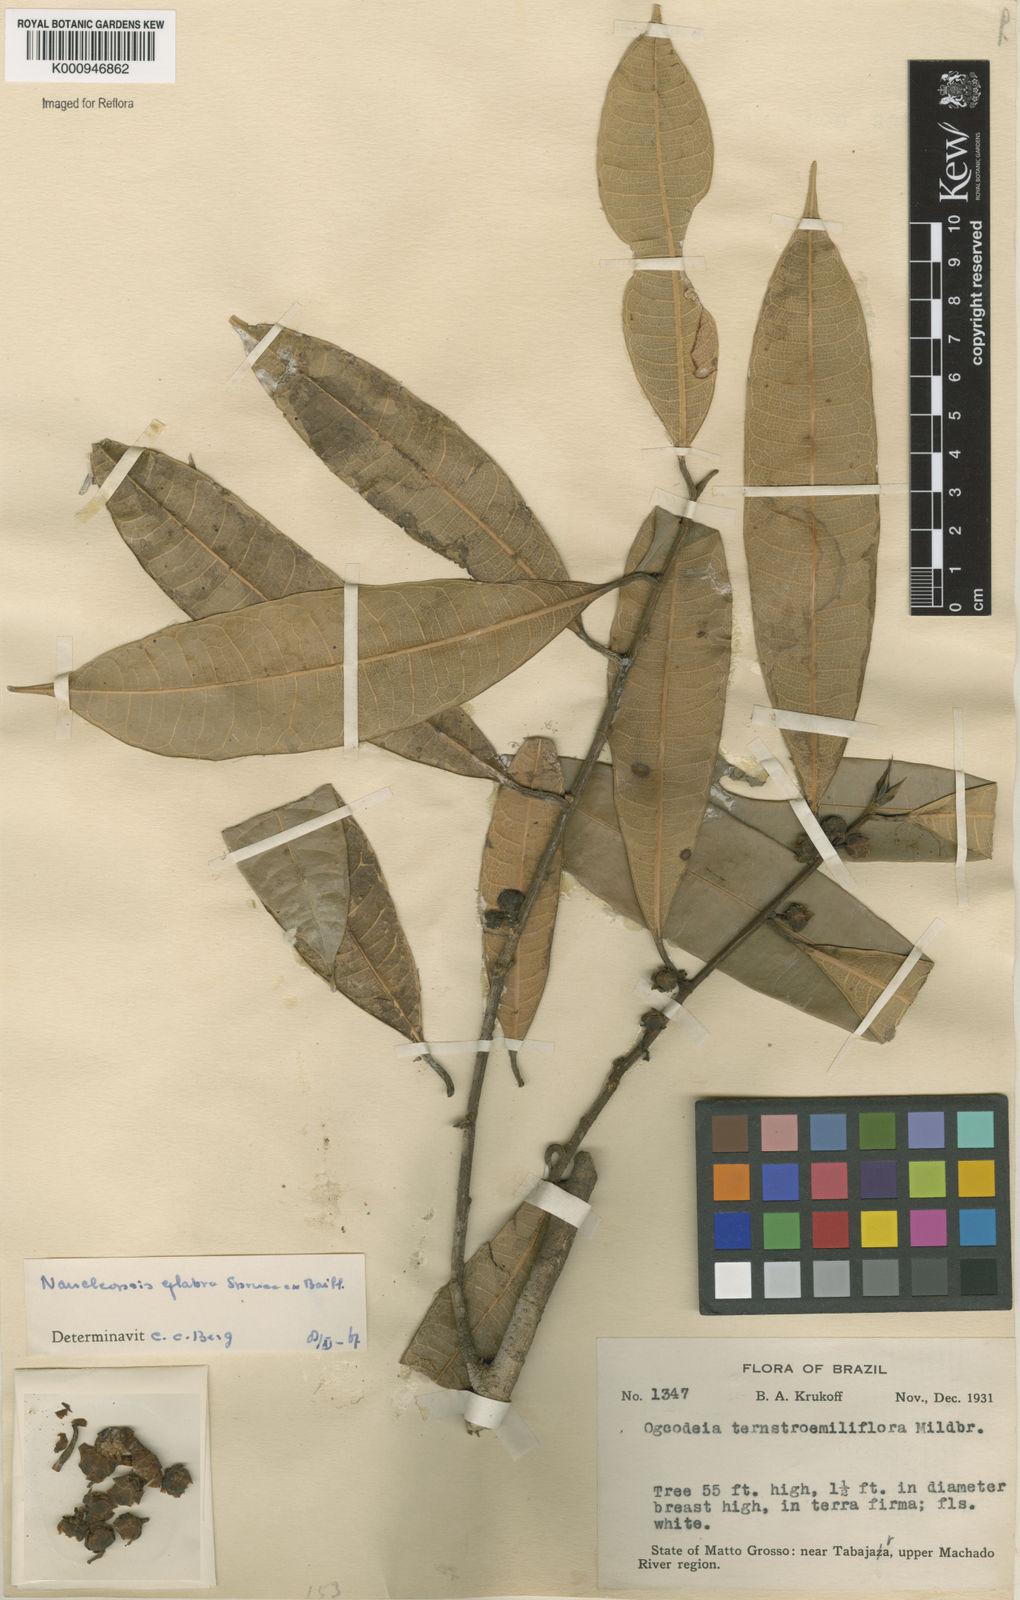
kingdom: Plantae
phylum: Tracheophyta
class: Magnoliopsida
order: Rosales
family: Moraceae
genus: Naucleopsis
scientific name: Naucleopsis glabra
